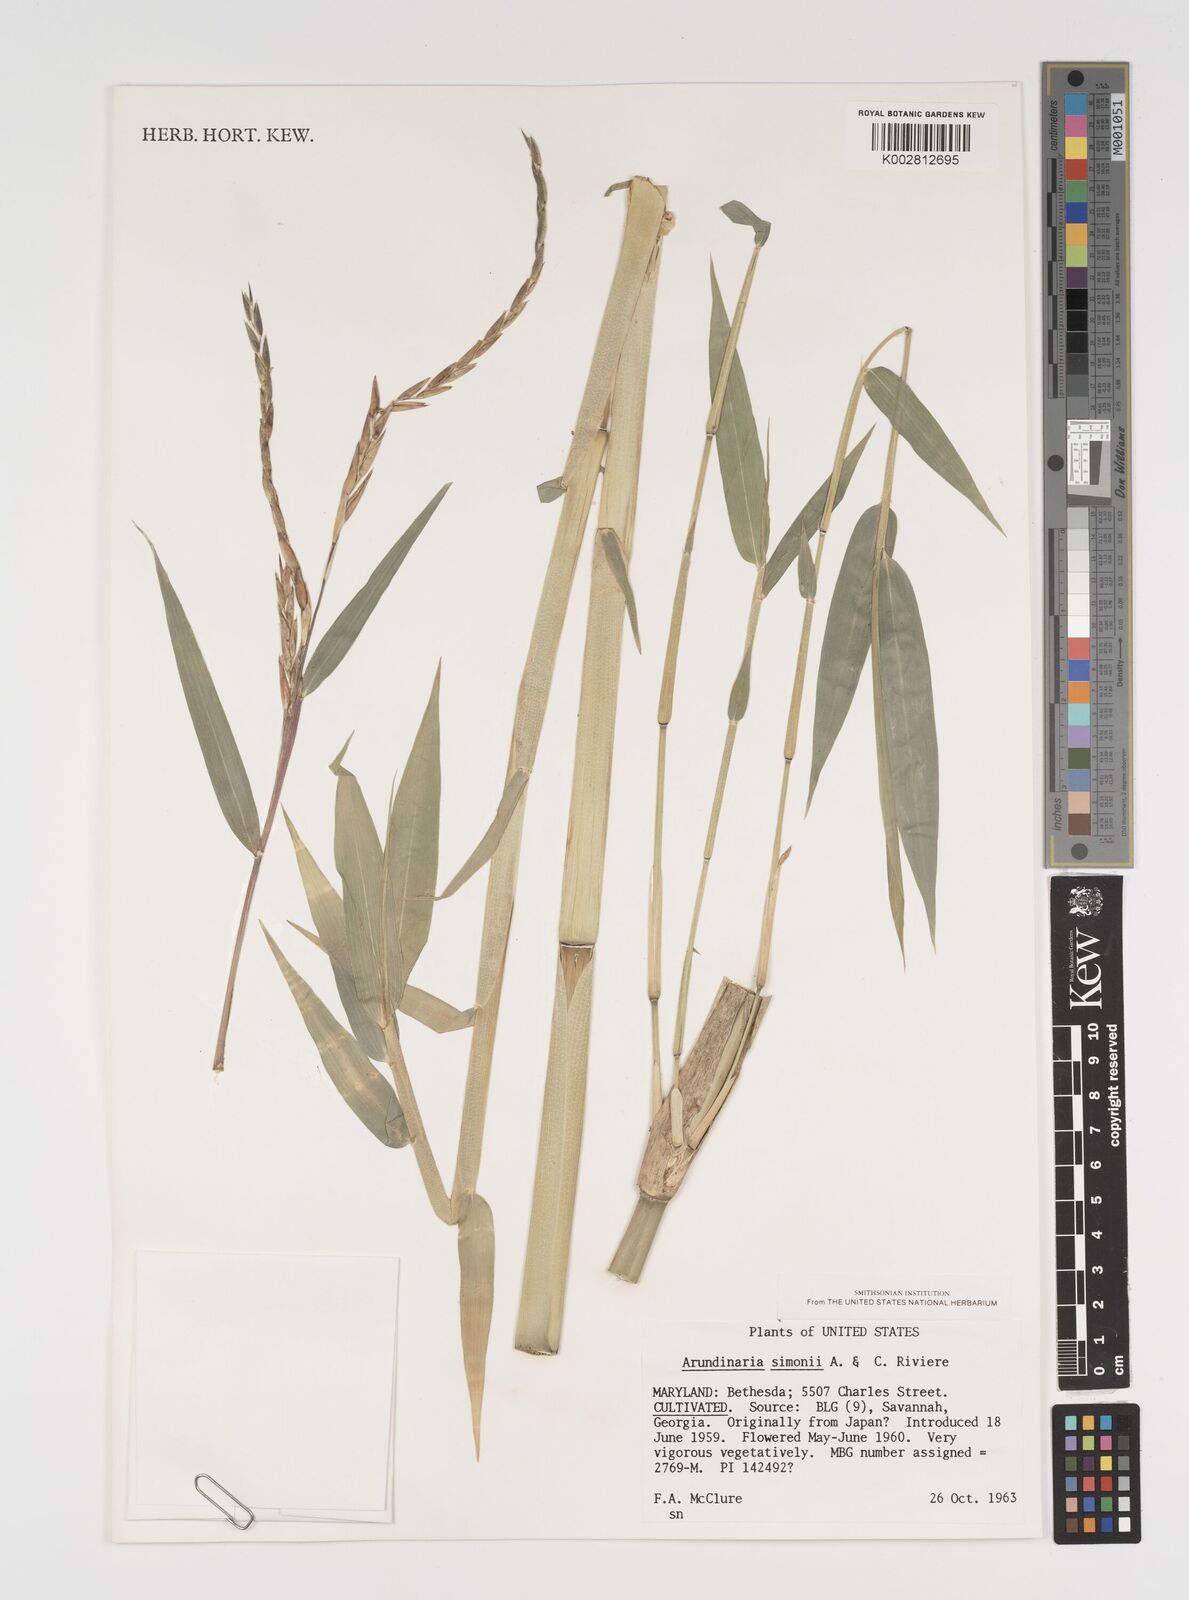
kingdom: Plantae
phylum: Tracheophyta
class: Liliopsida
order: Poales
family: Poaceae
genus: Arundinaria
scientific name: Arundinaria
